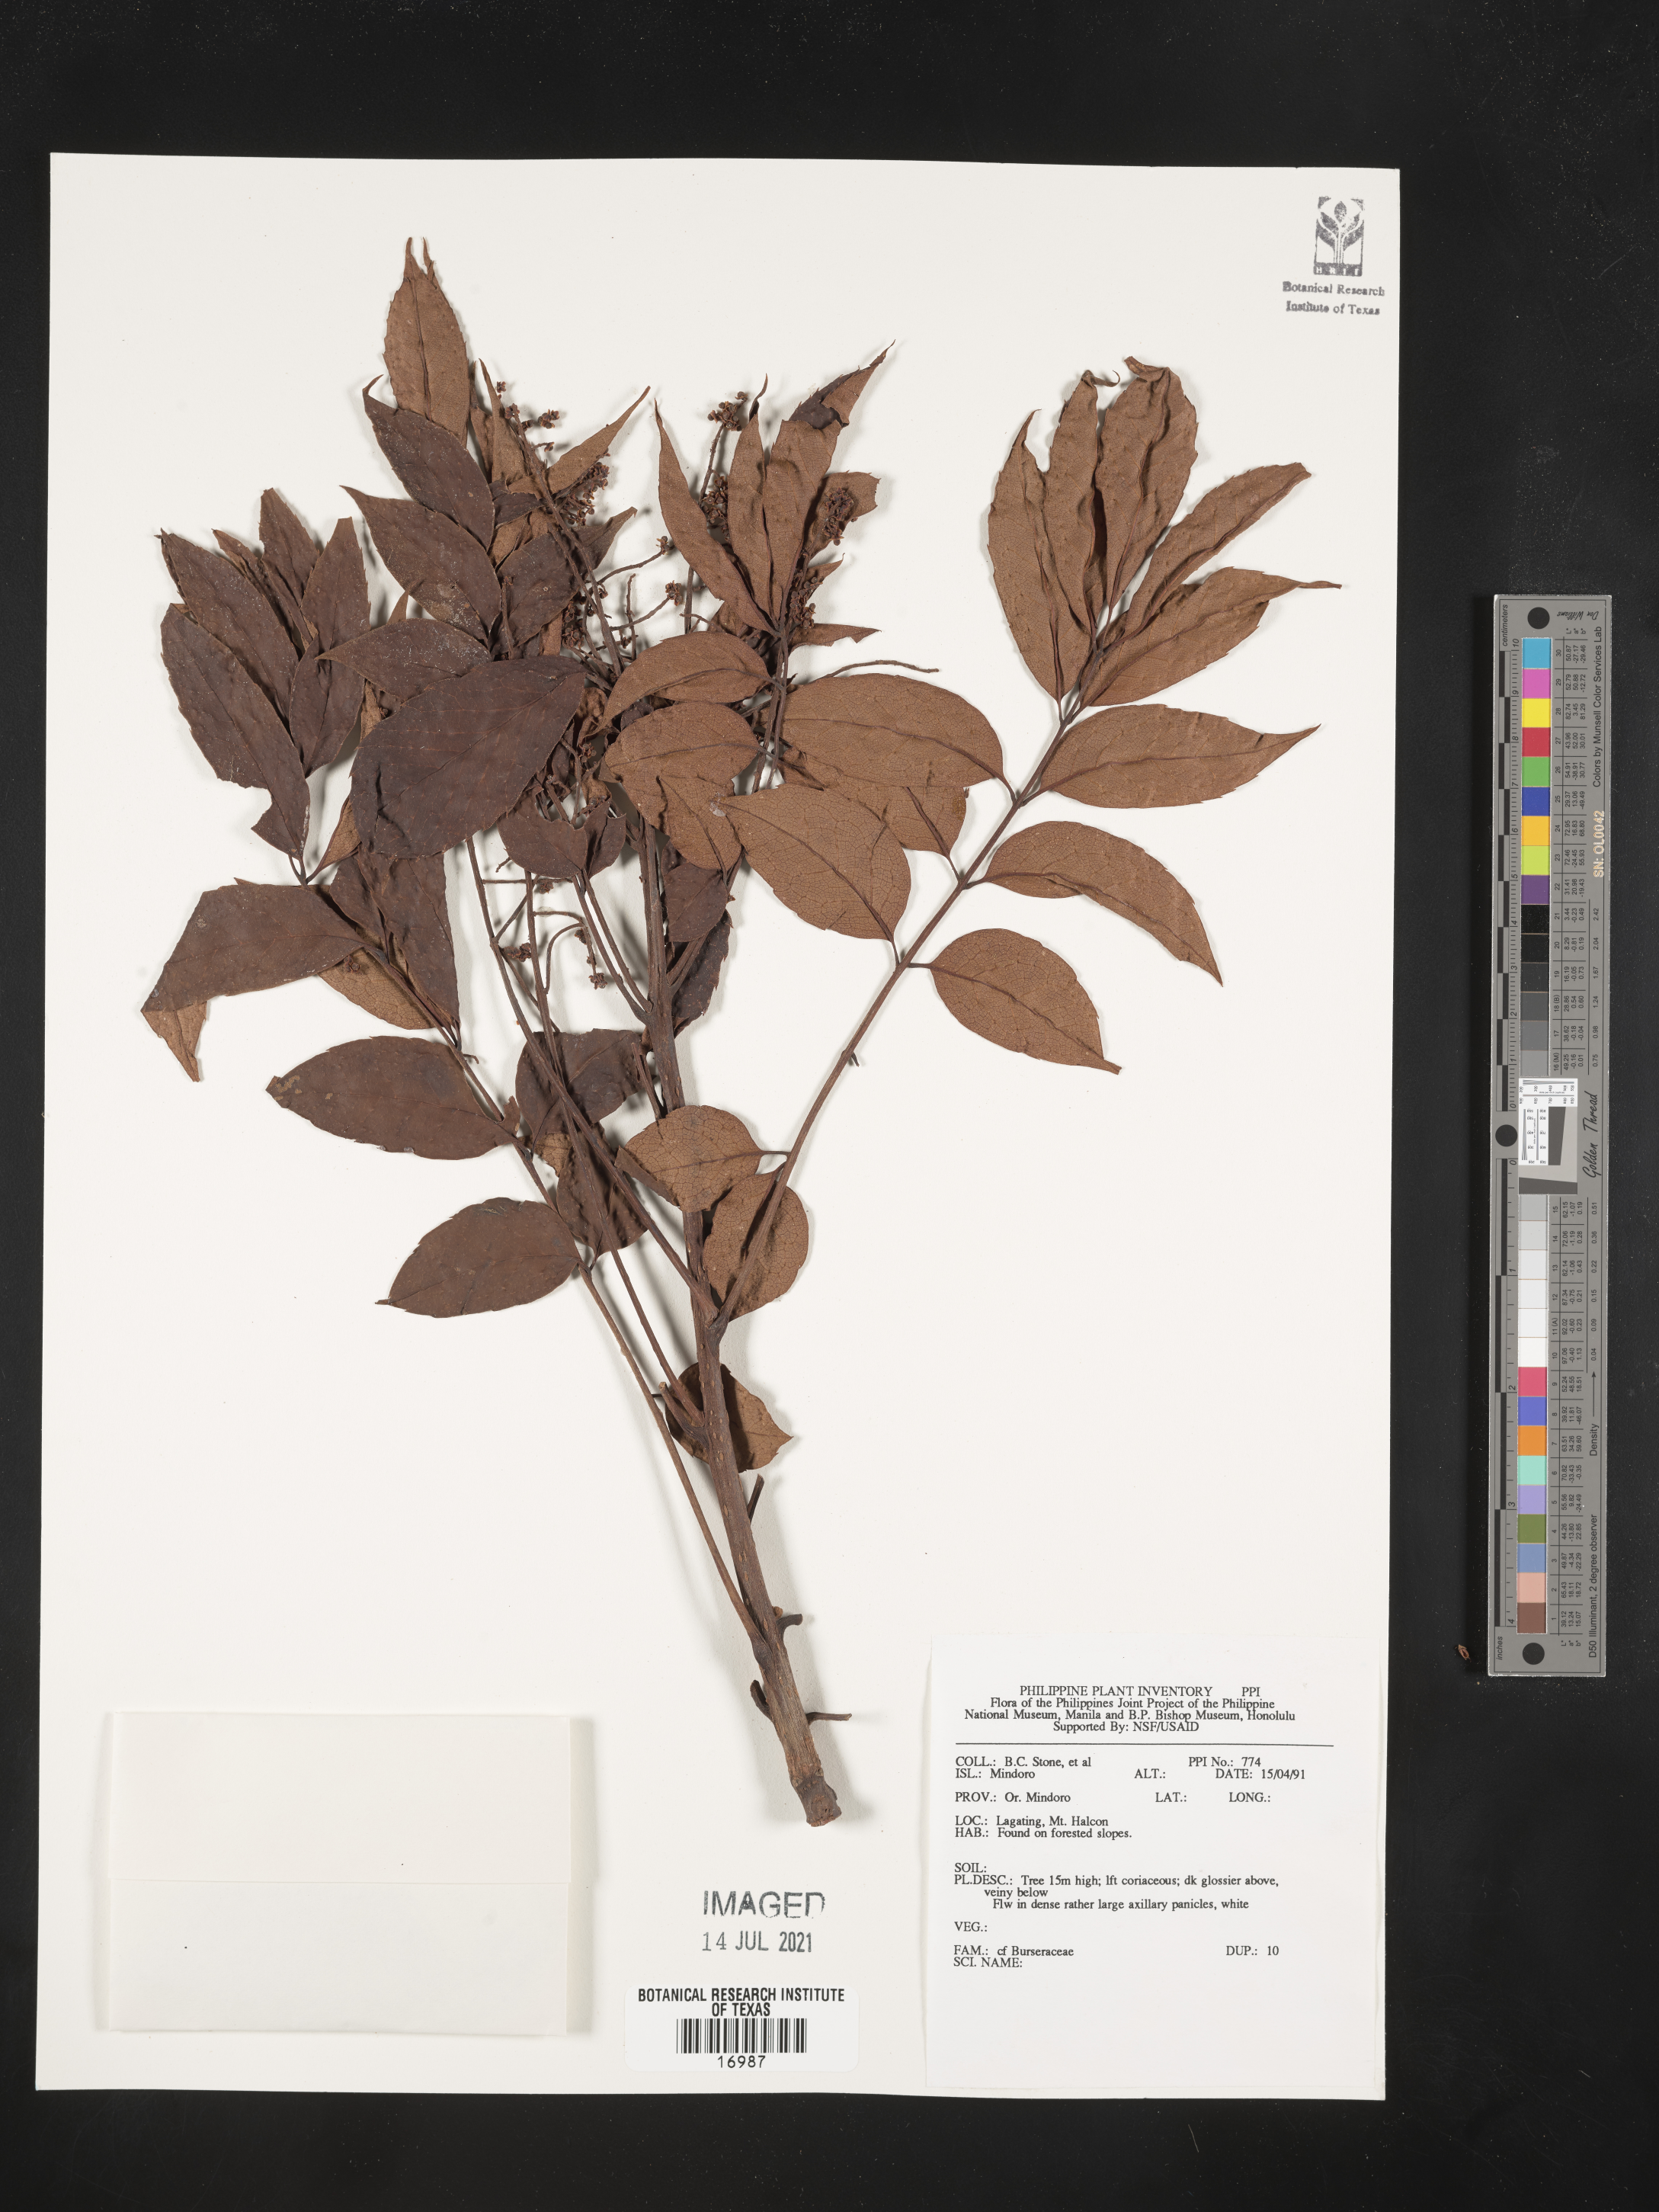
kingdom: Plantae
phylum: Tracheophyta
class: Magnoliopsida
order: Sapindales
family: Burseraceae
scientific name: Burseraceae
